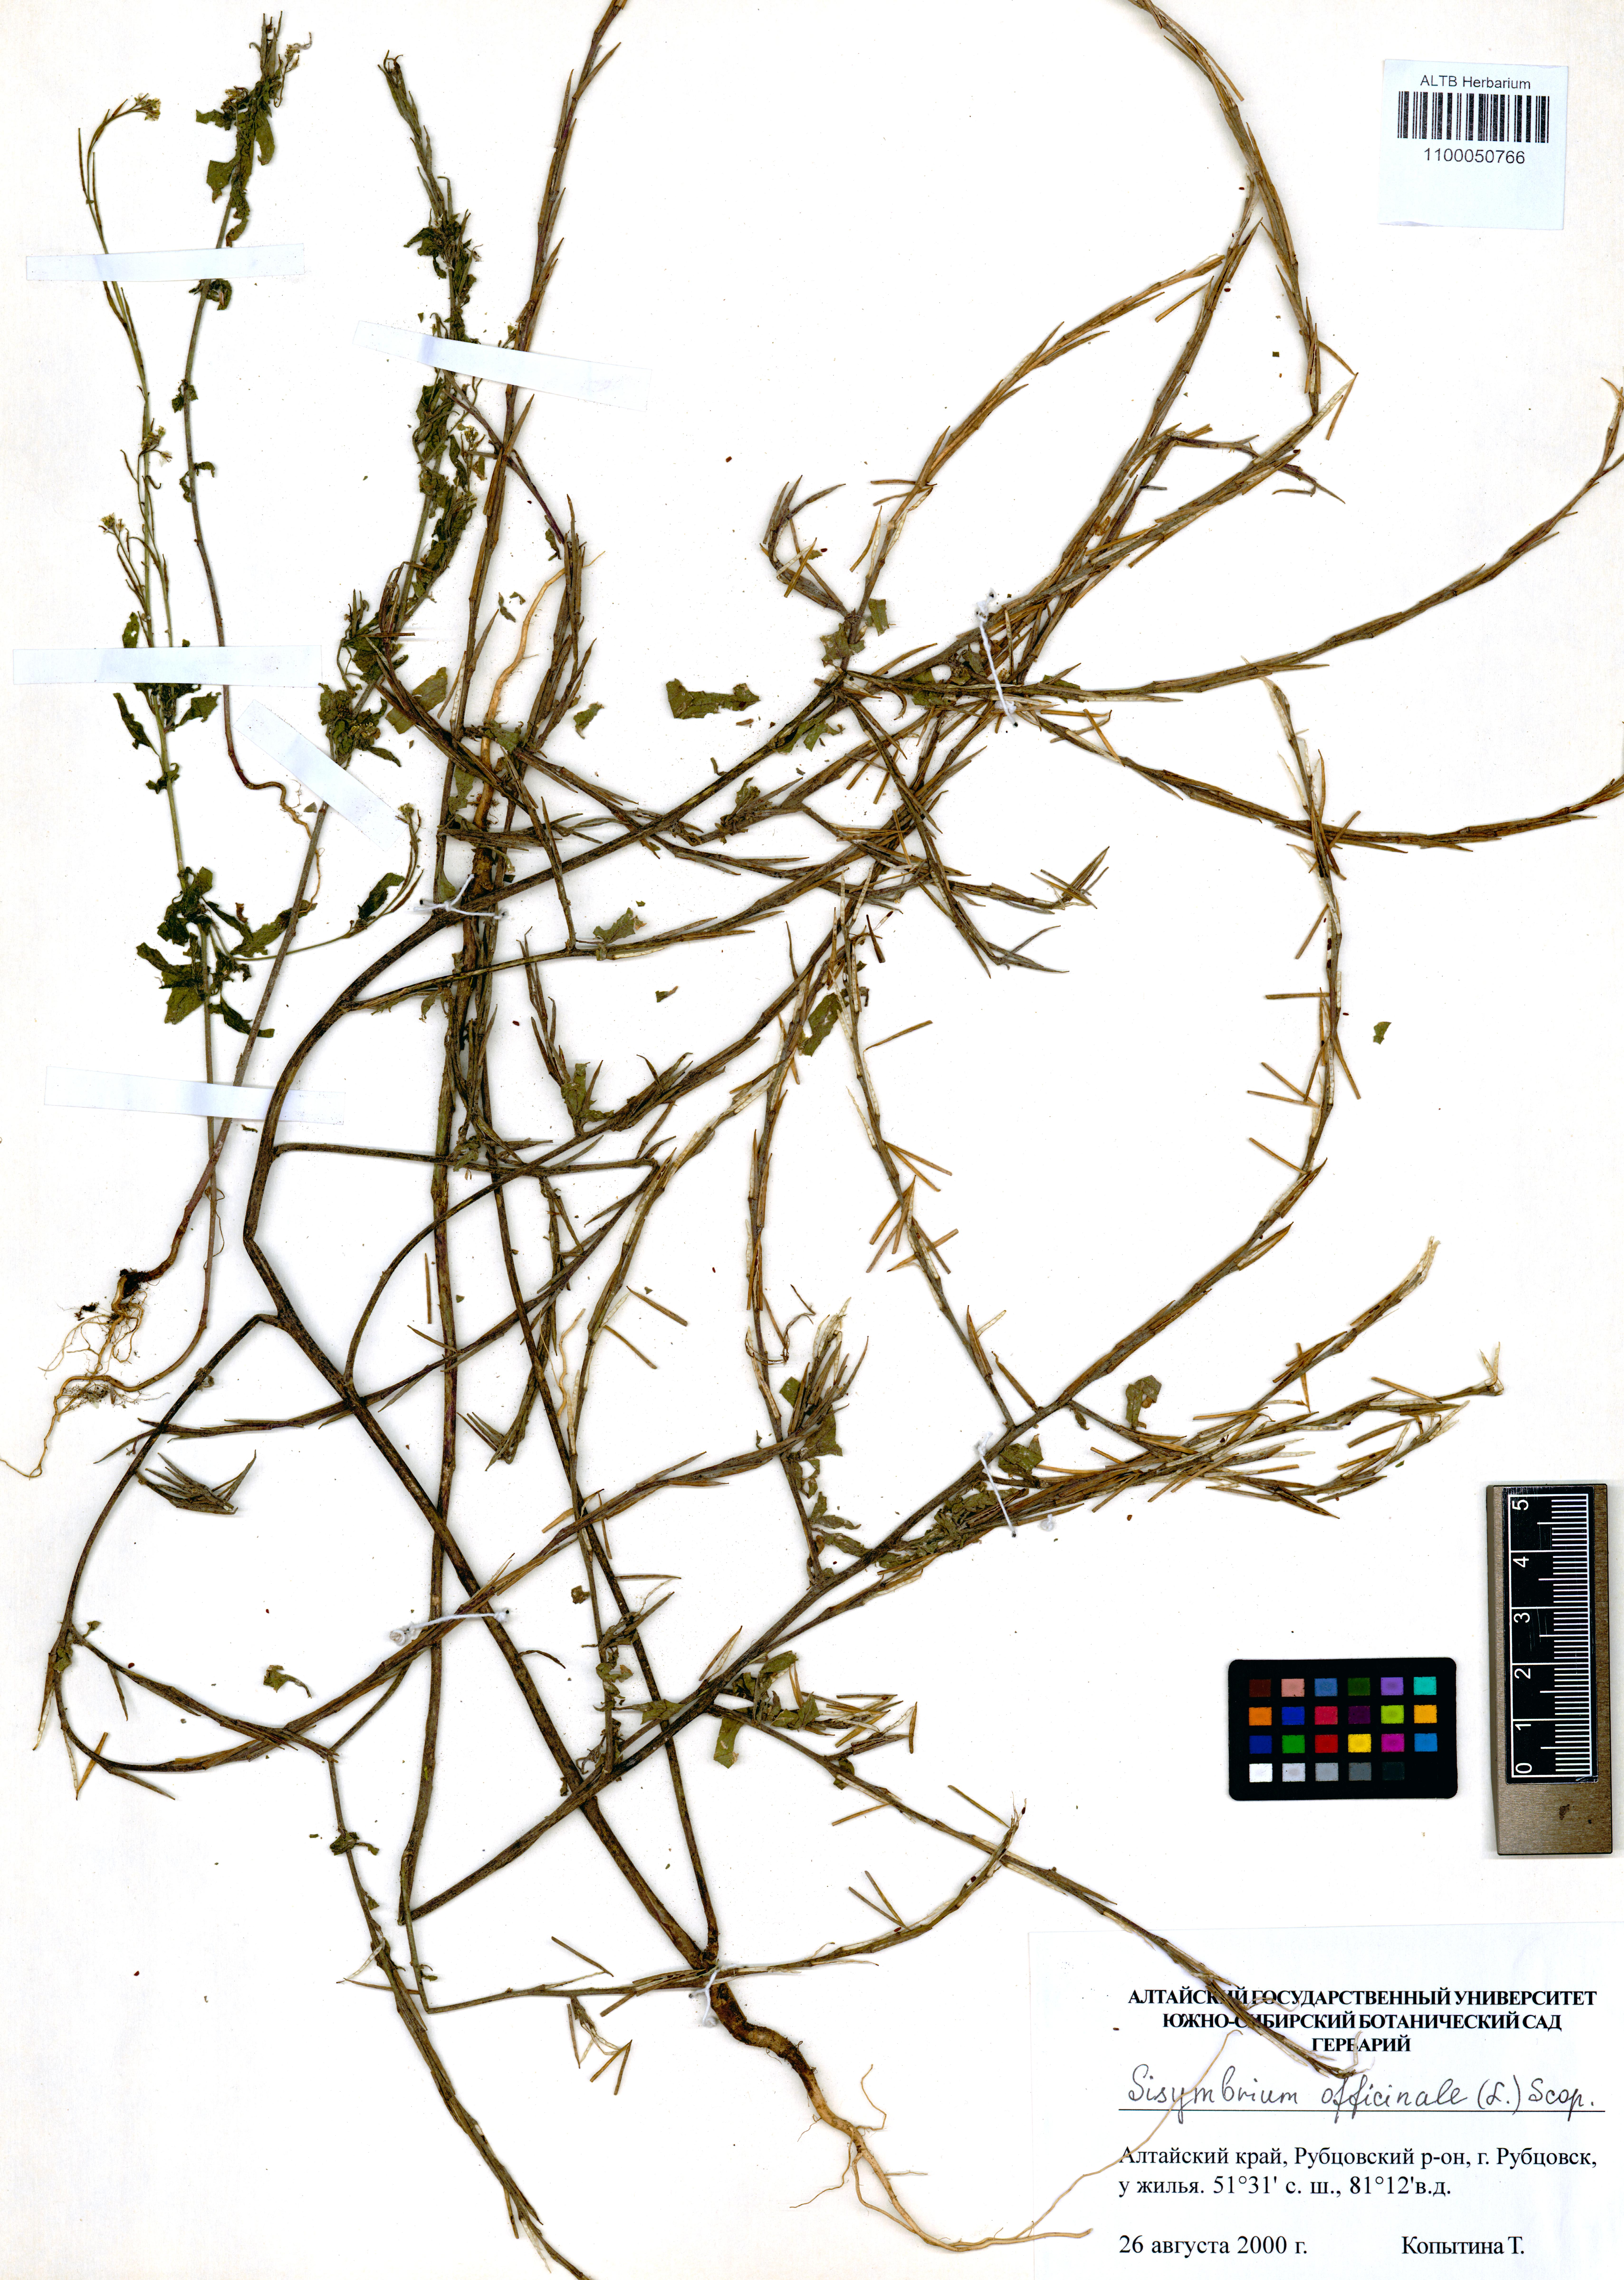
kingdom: Plantae
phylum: Tracheophyta
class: Magnoliopsida
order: Brassicales
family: Brassicaceae
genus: Sisymbrium
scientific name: Sisymbrium officinale
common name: Hedge mustard
